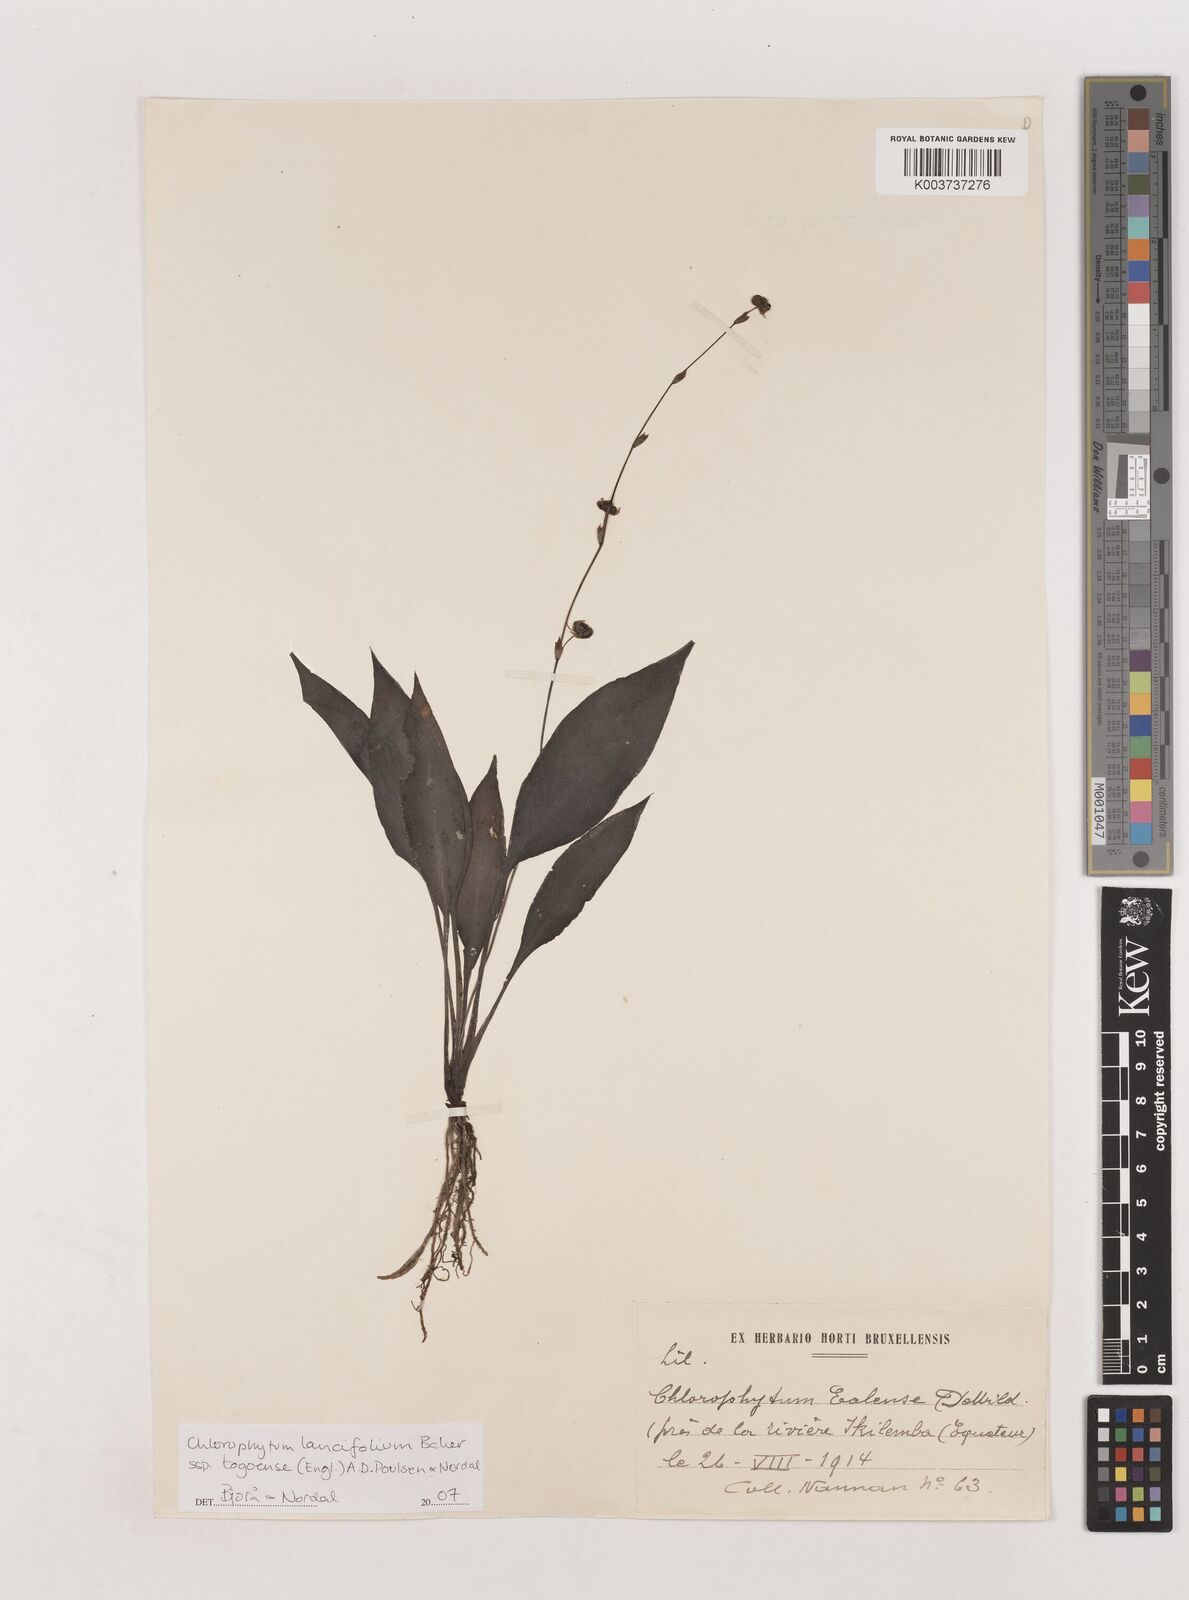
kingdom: Plantae
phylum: Tracheophyta
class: Liliopsida
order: Asparagales
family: Asparagaceae
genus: Chlorophytum
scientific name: Chlorophytum lancifolium
